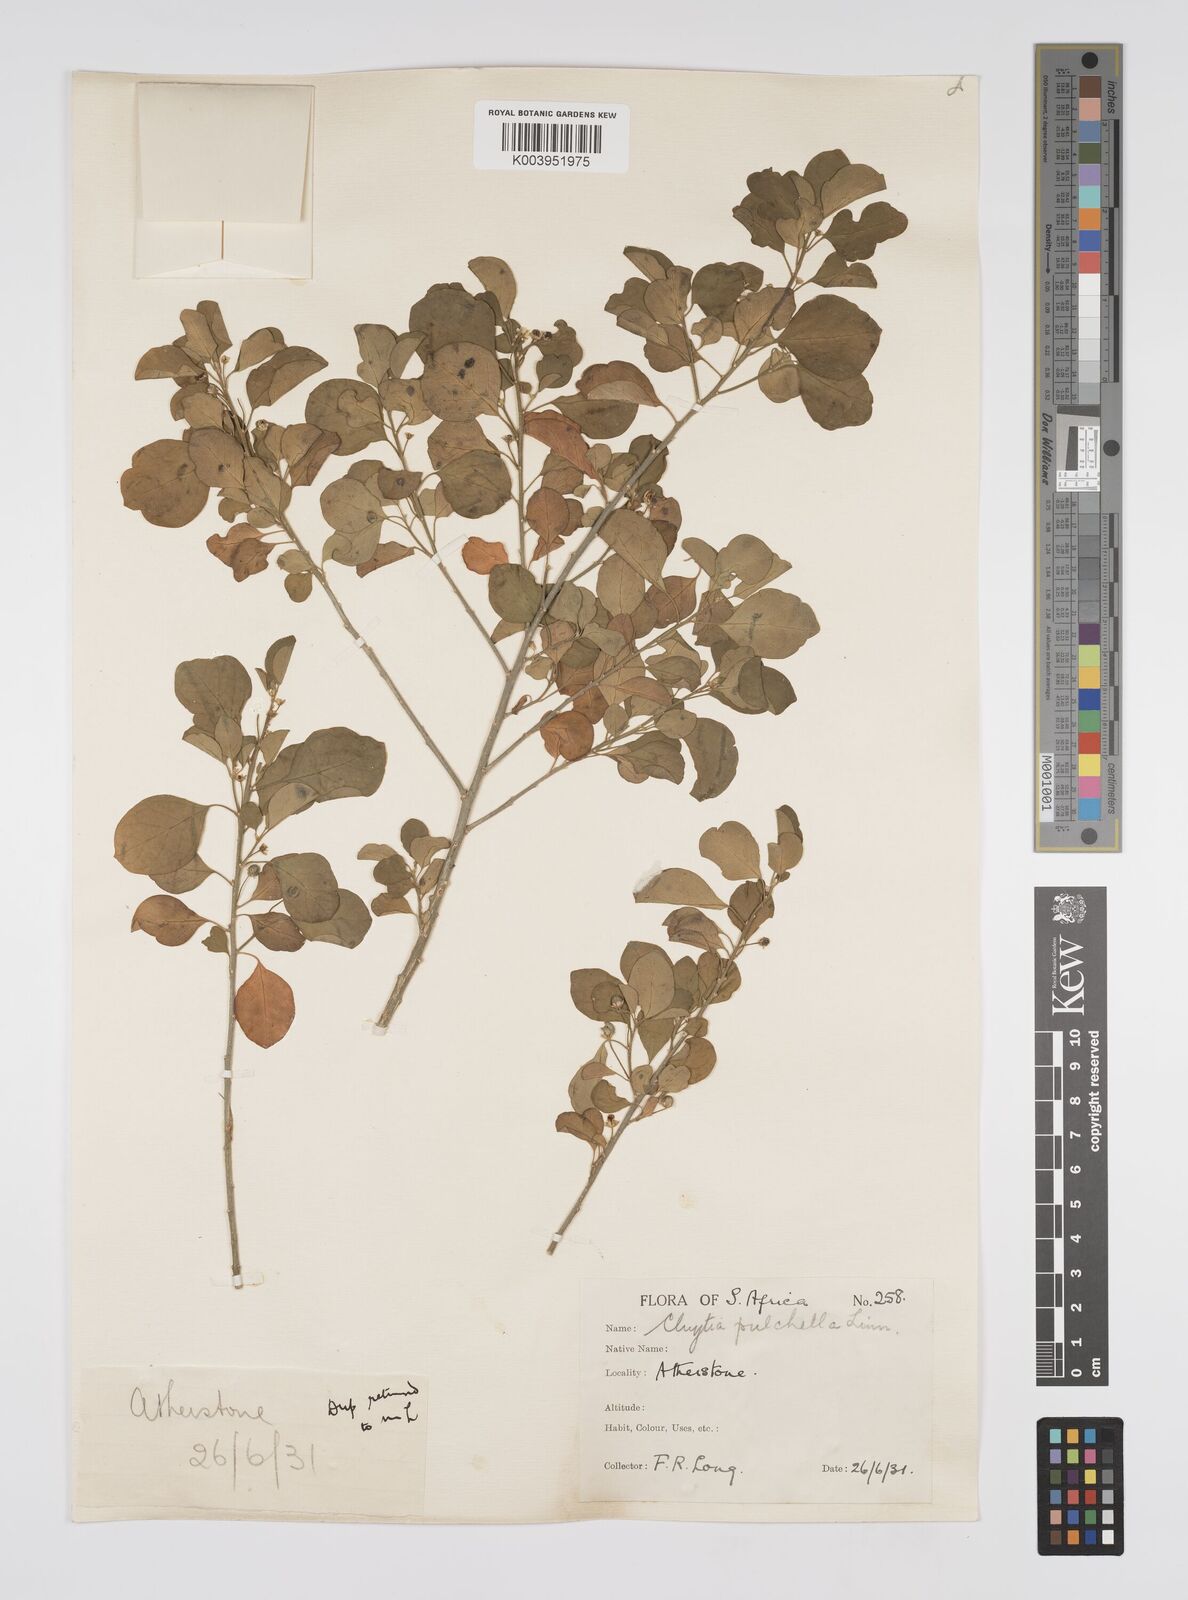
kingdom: Plantae
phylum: Tracheophyta
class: Magnoliopsida
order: Malpighiales
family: Peraceae
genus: Clutia
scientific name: Clutia pulchella
